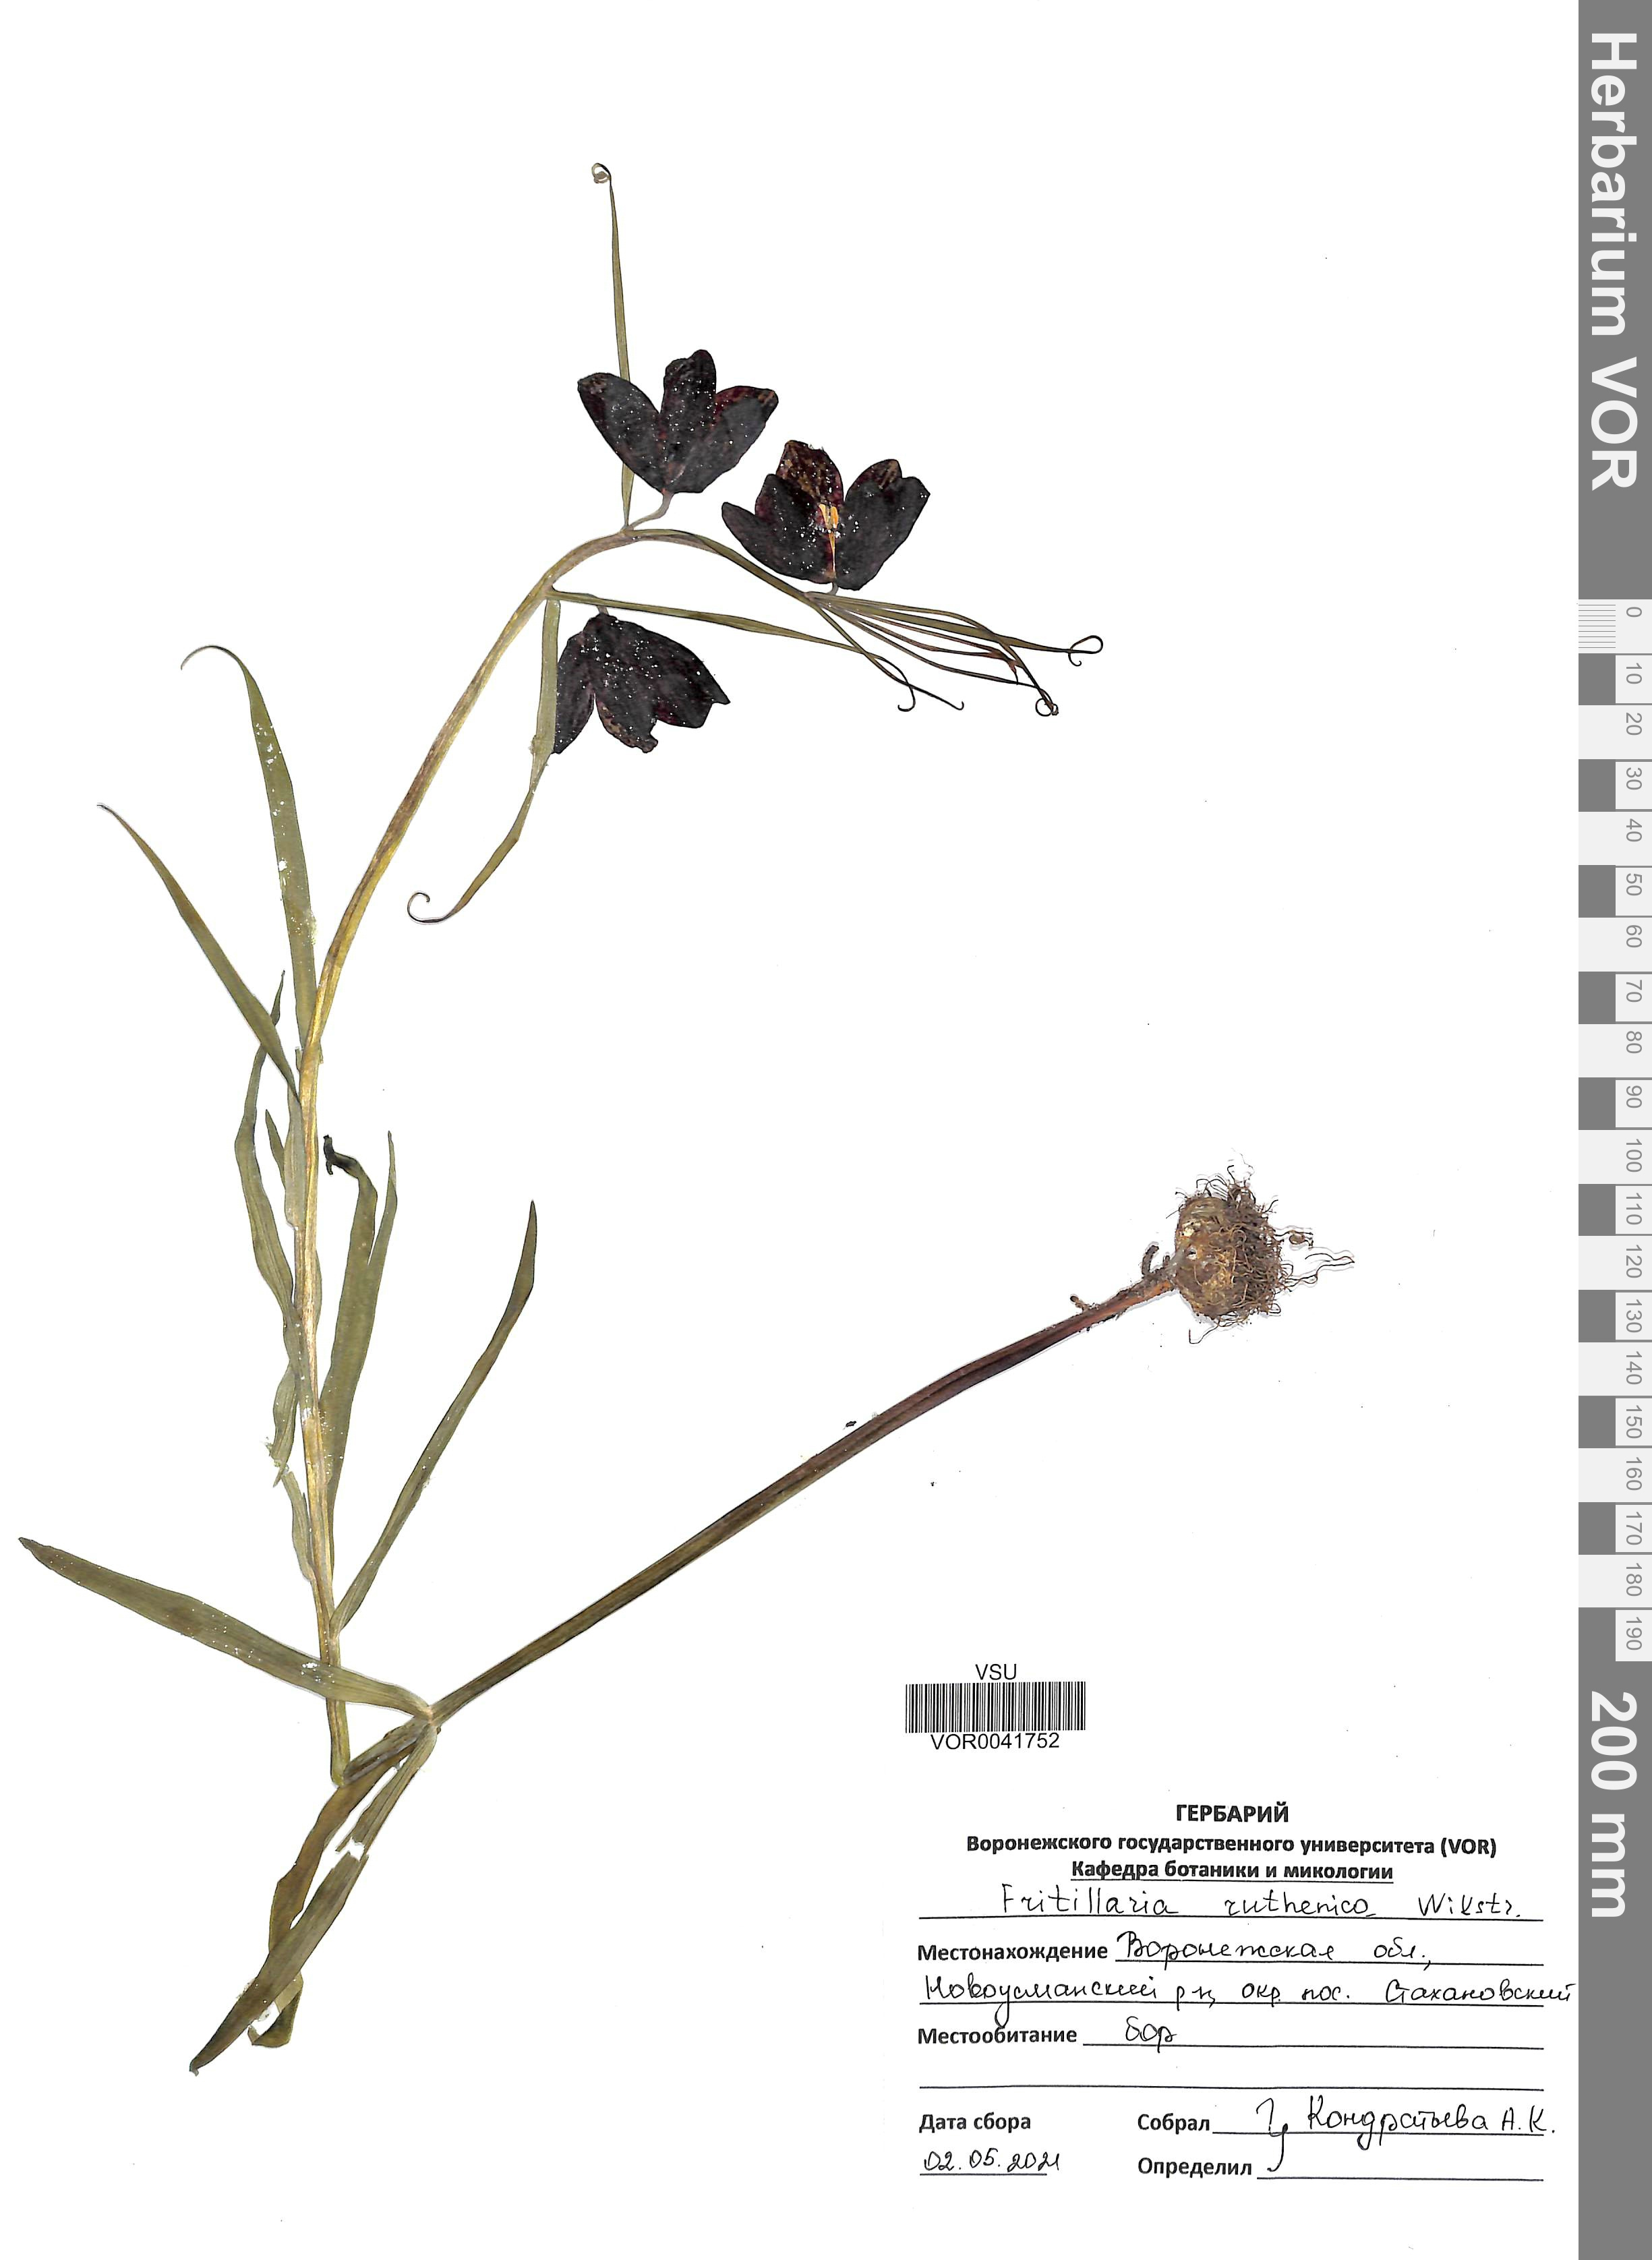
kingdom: Plantae
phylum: Tracheophyta
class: Liliopsida
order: Liliales
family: Liliaceae
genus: Fritillaria
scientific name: Fritillaria ruthenica
